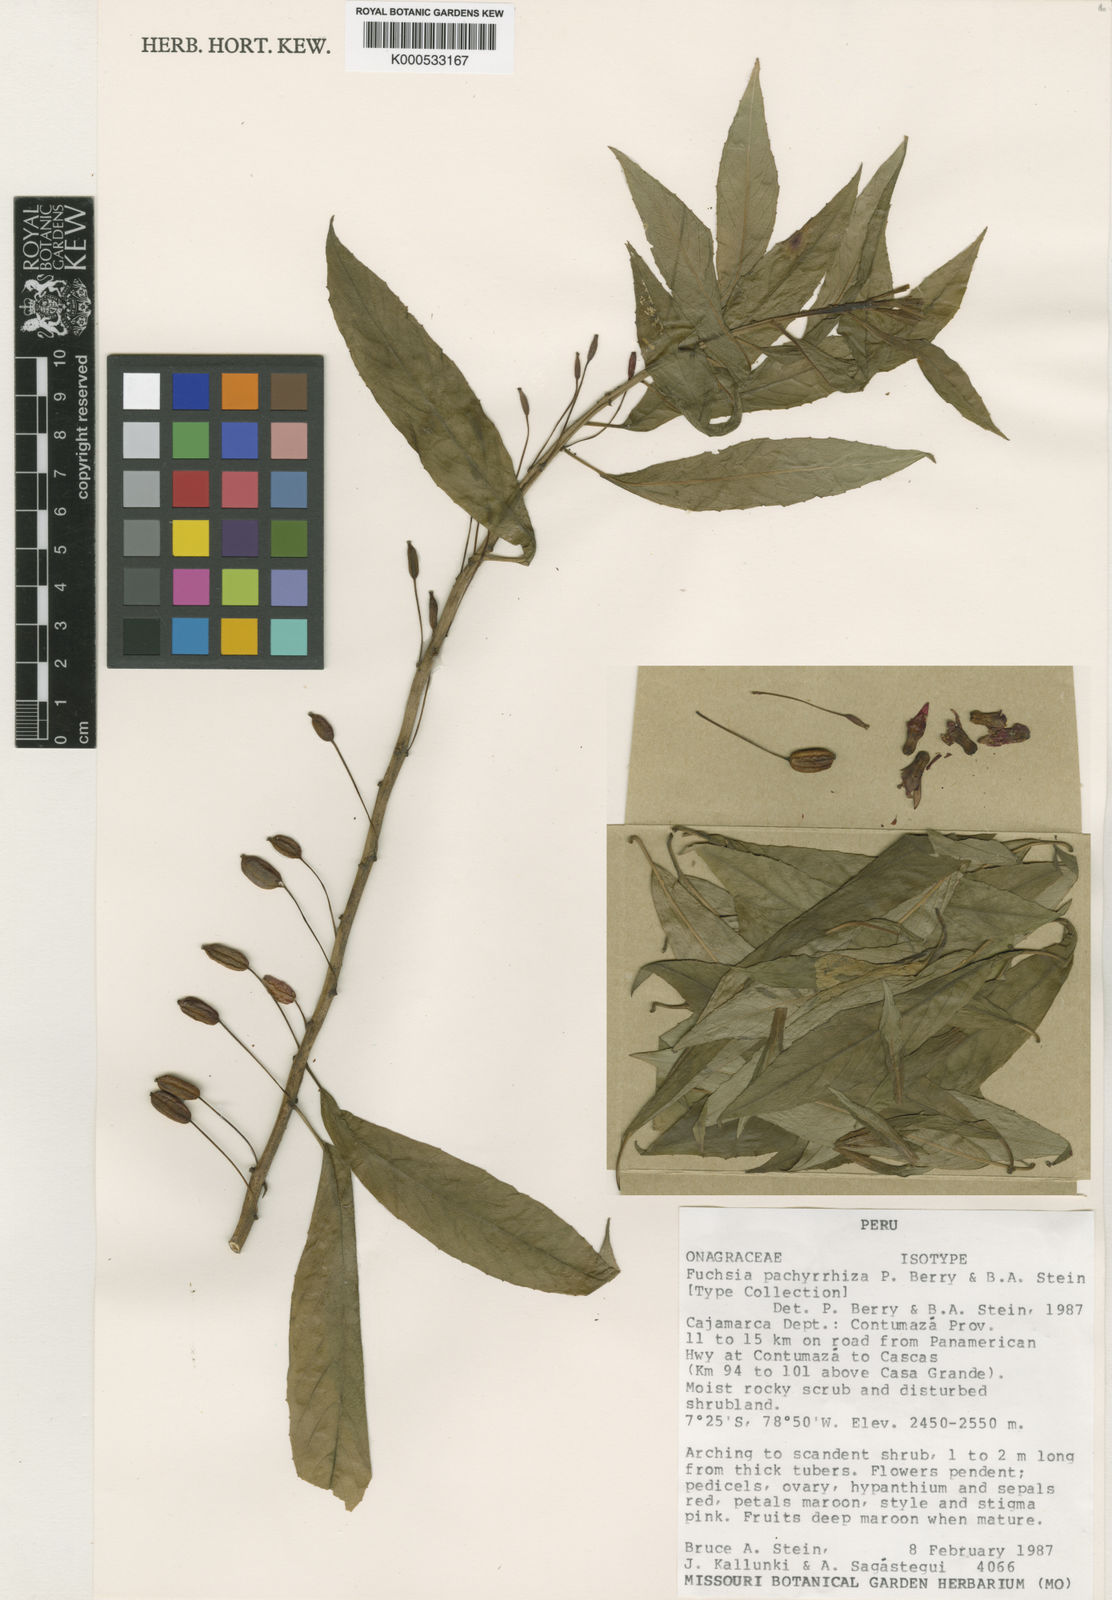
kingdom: Plantae
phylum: Tracheophyta
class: Magnoliopsida
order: Myrtales
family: Onagraceae
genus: Fuchsia
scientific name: Fuchsia pachyrrhiza
